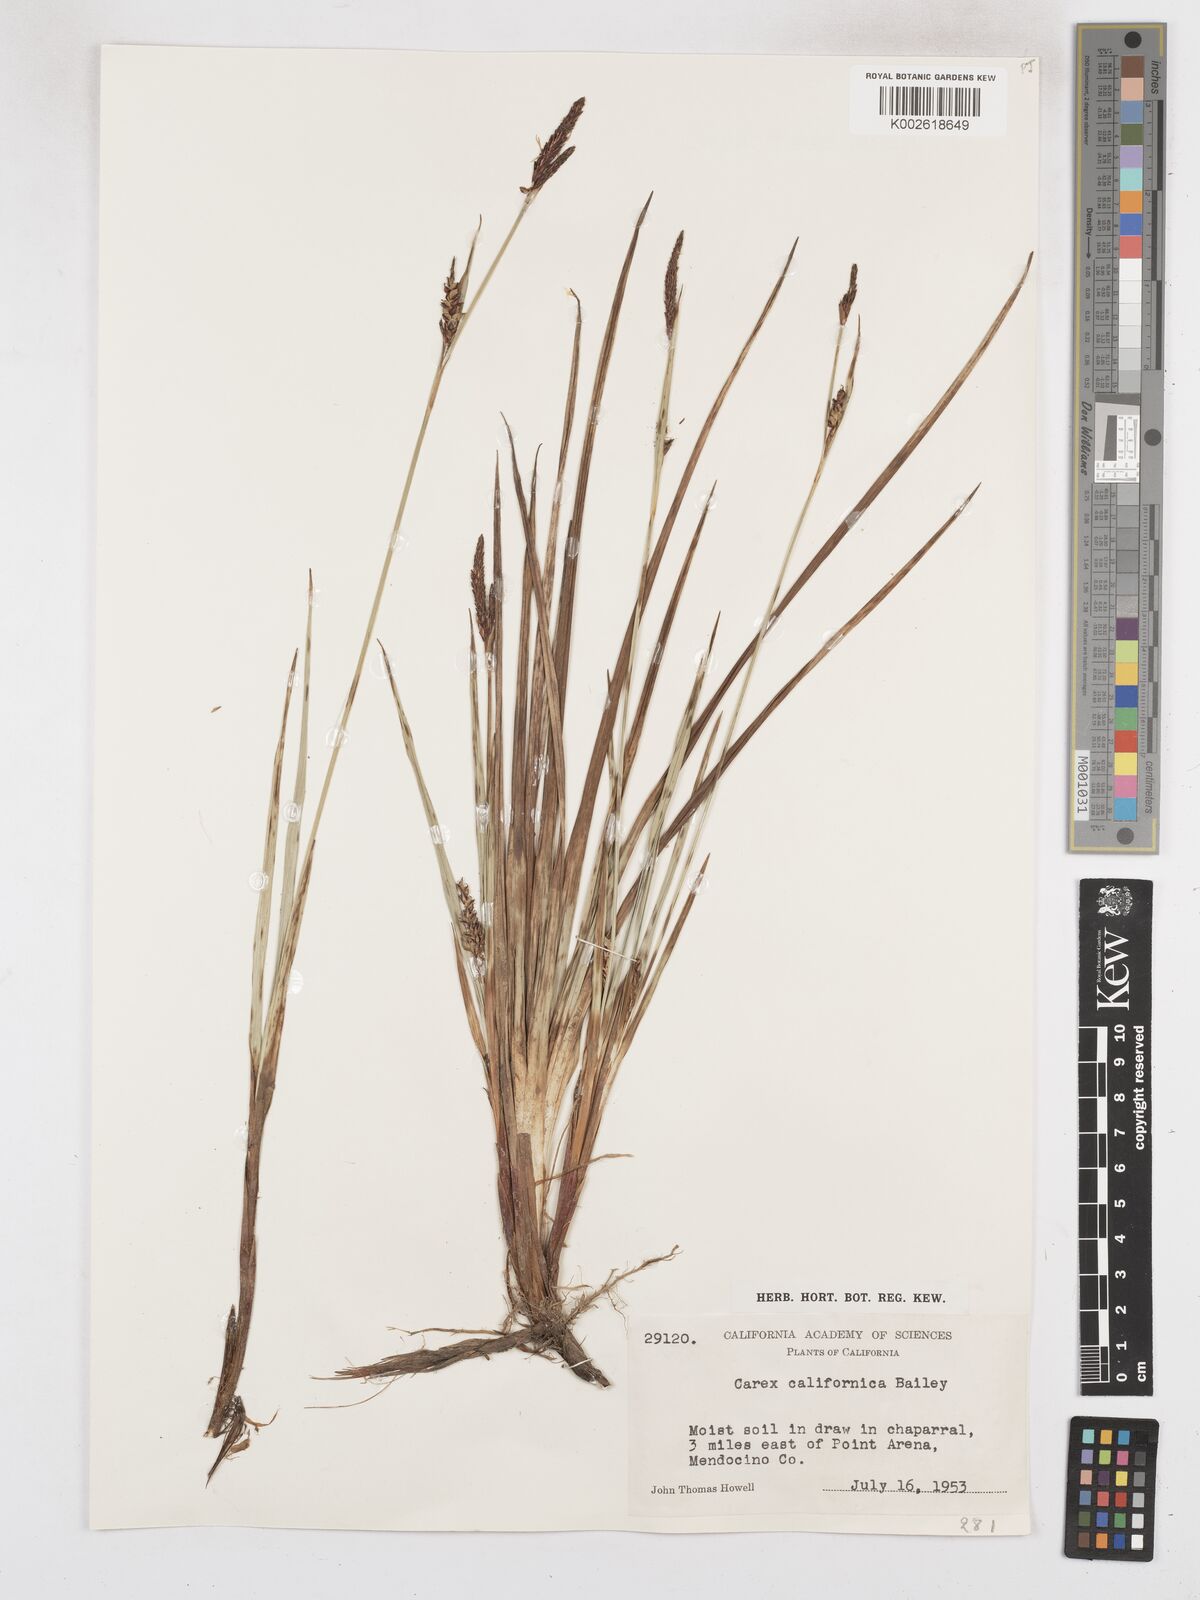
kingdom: Plantae
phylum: Tracheophyta
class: Liliopsida
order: Poales
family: Cyperaceae
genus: Carex
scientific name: Carex californica
